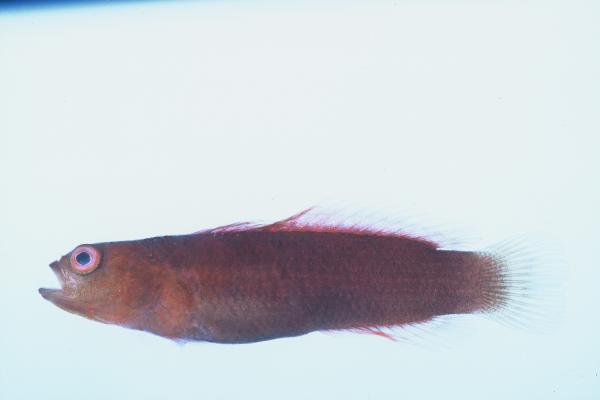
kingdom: Animalia
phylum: Chordata
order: Perciformes
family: Pseudochromidae
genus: Chlidichthys
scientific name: Chlidichthys pembae
